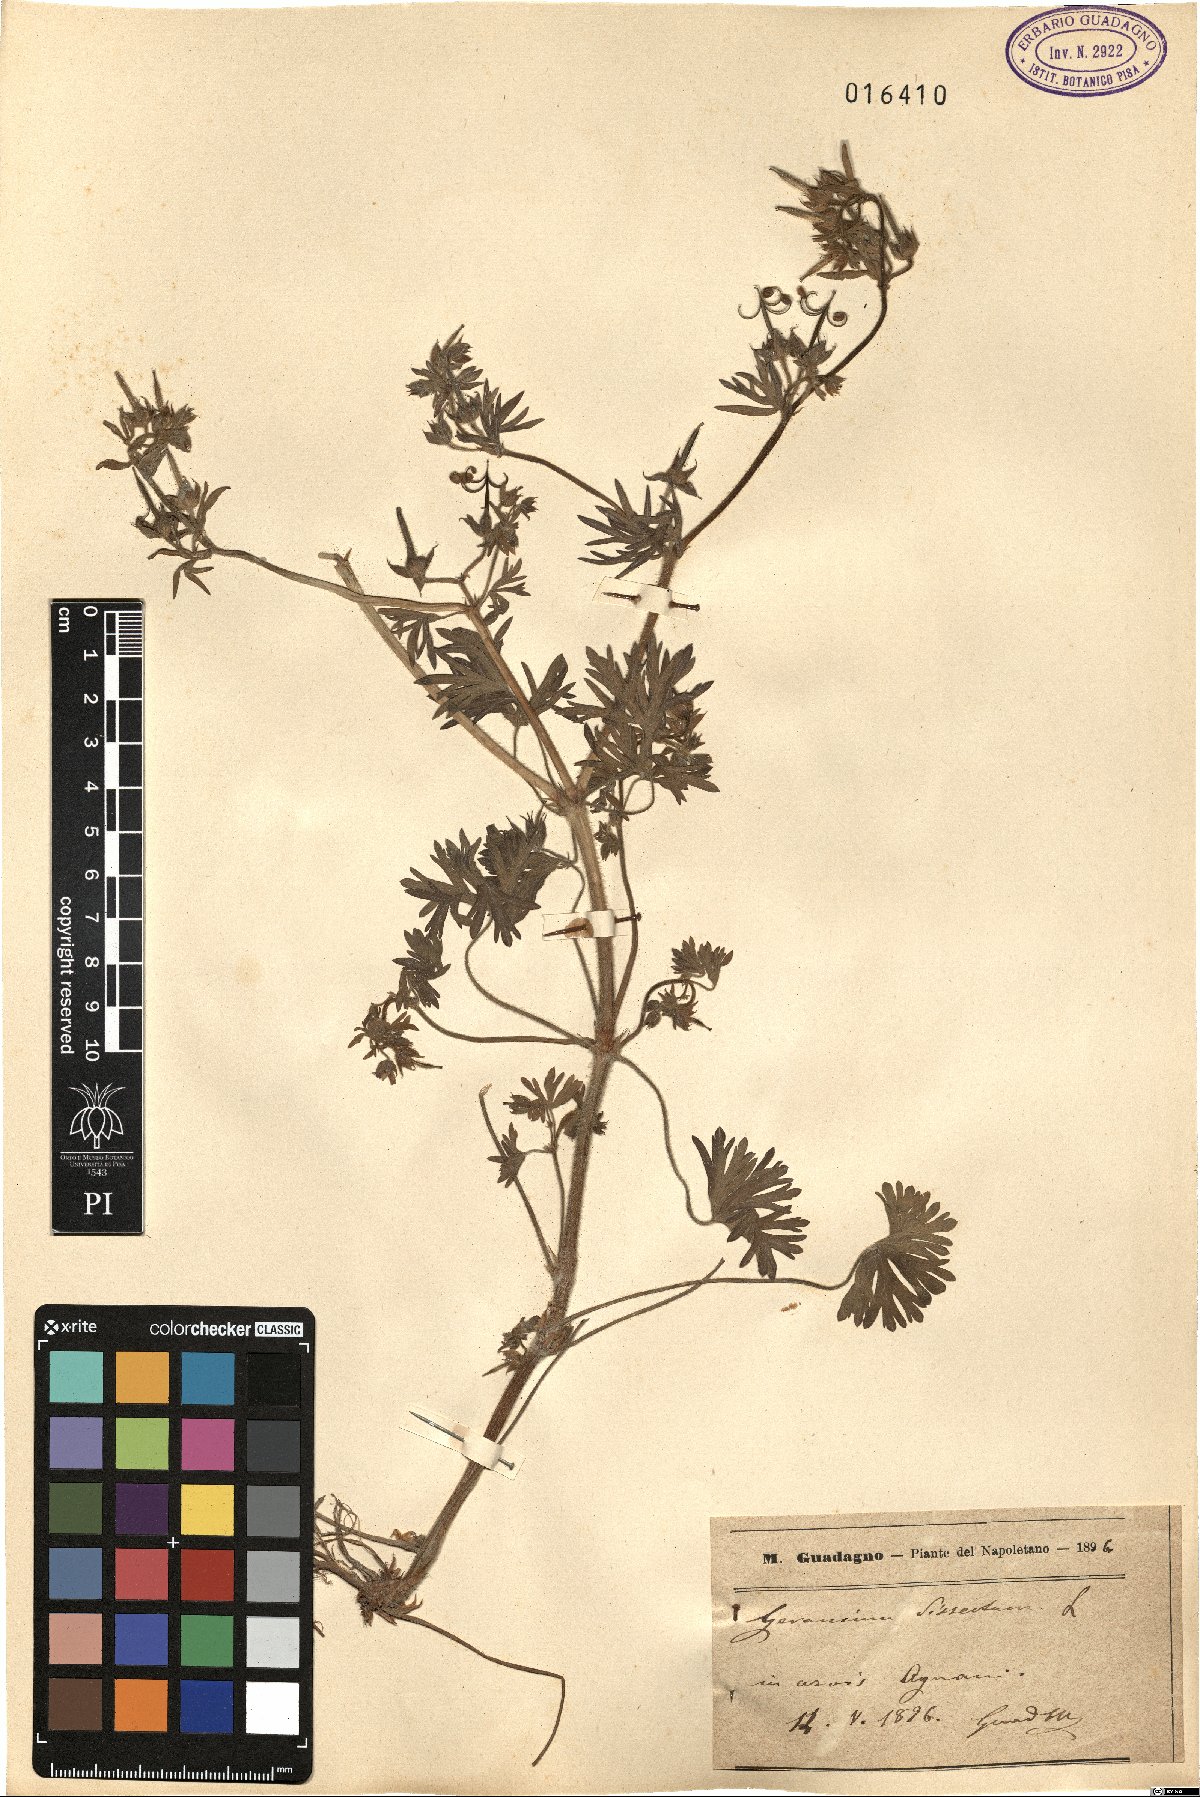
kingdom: Plantae
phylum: Tracheophyta
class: Magnoliopsida
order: Geraniales
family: Geraniaceae
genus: Geranium
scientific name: Geranium dissectum
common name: Cut-leaved crane's-bill
